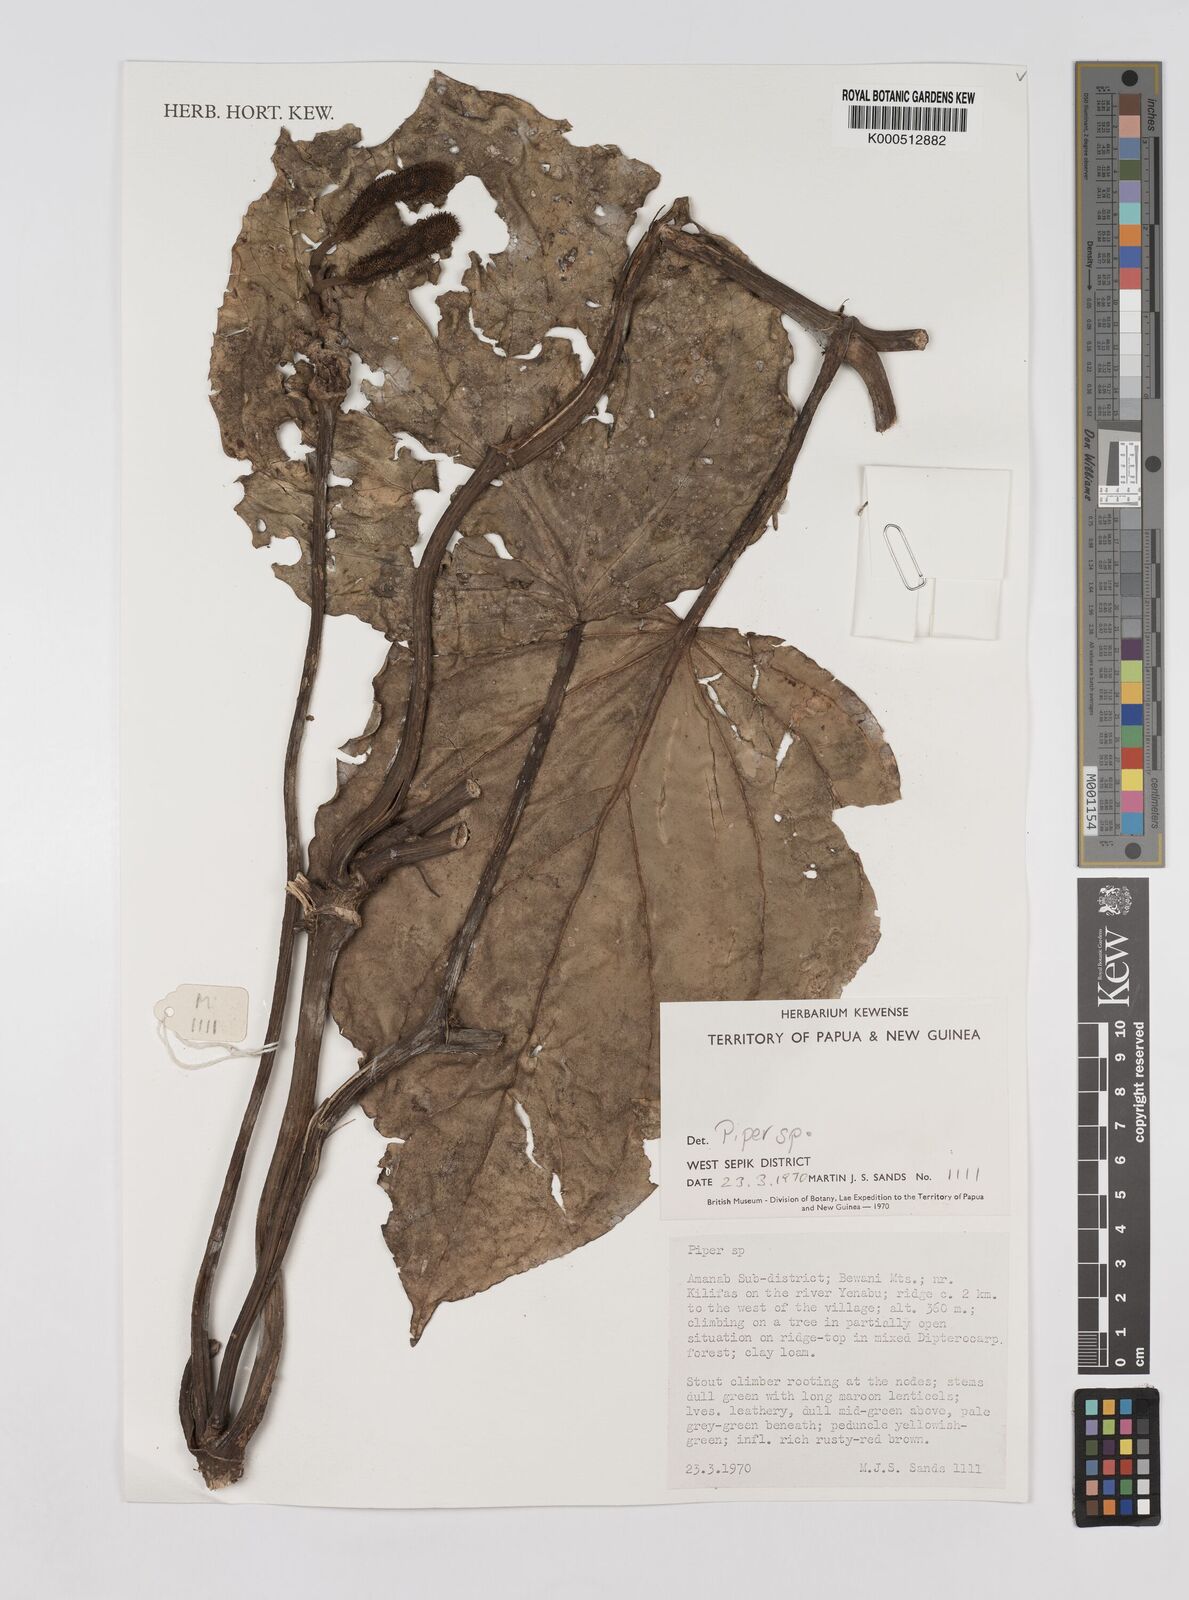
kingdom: Plantae
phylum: Tracheophyta
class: Magnoliopsida
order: Piperales
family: Piperaceae
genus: Piper
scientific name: Piper
